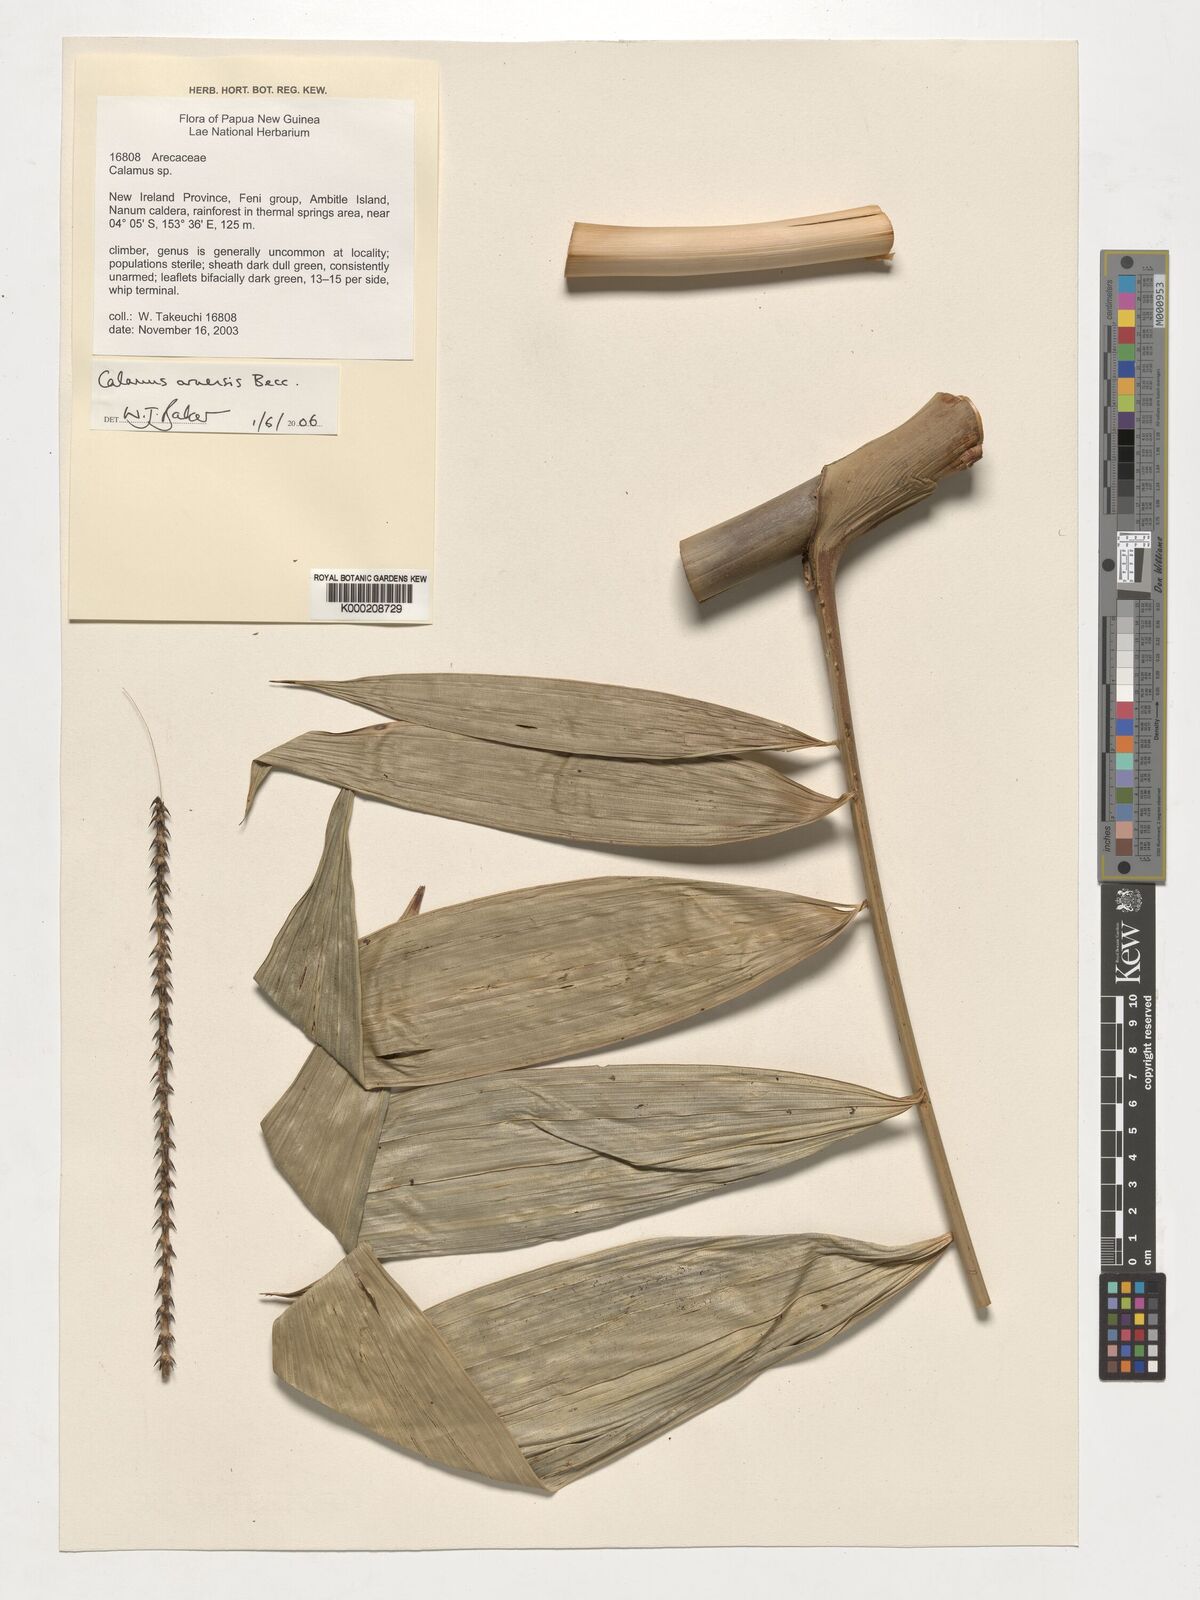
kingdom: Plantae
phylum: Tracheophyta
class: Liliopsida
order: Arecales
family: Arecaceae
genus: Calamus
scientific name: Calamus aruensis
